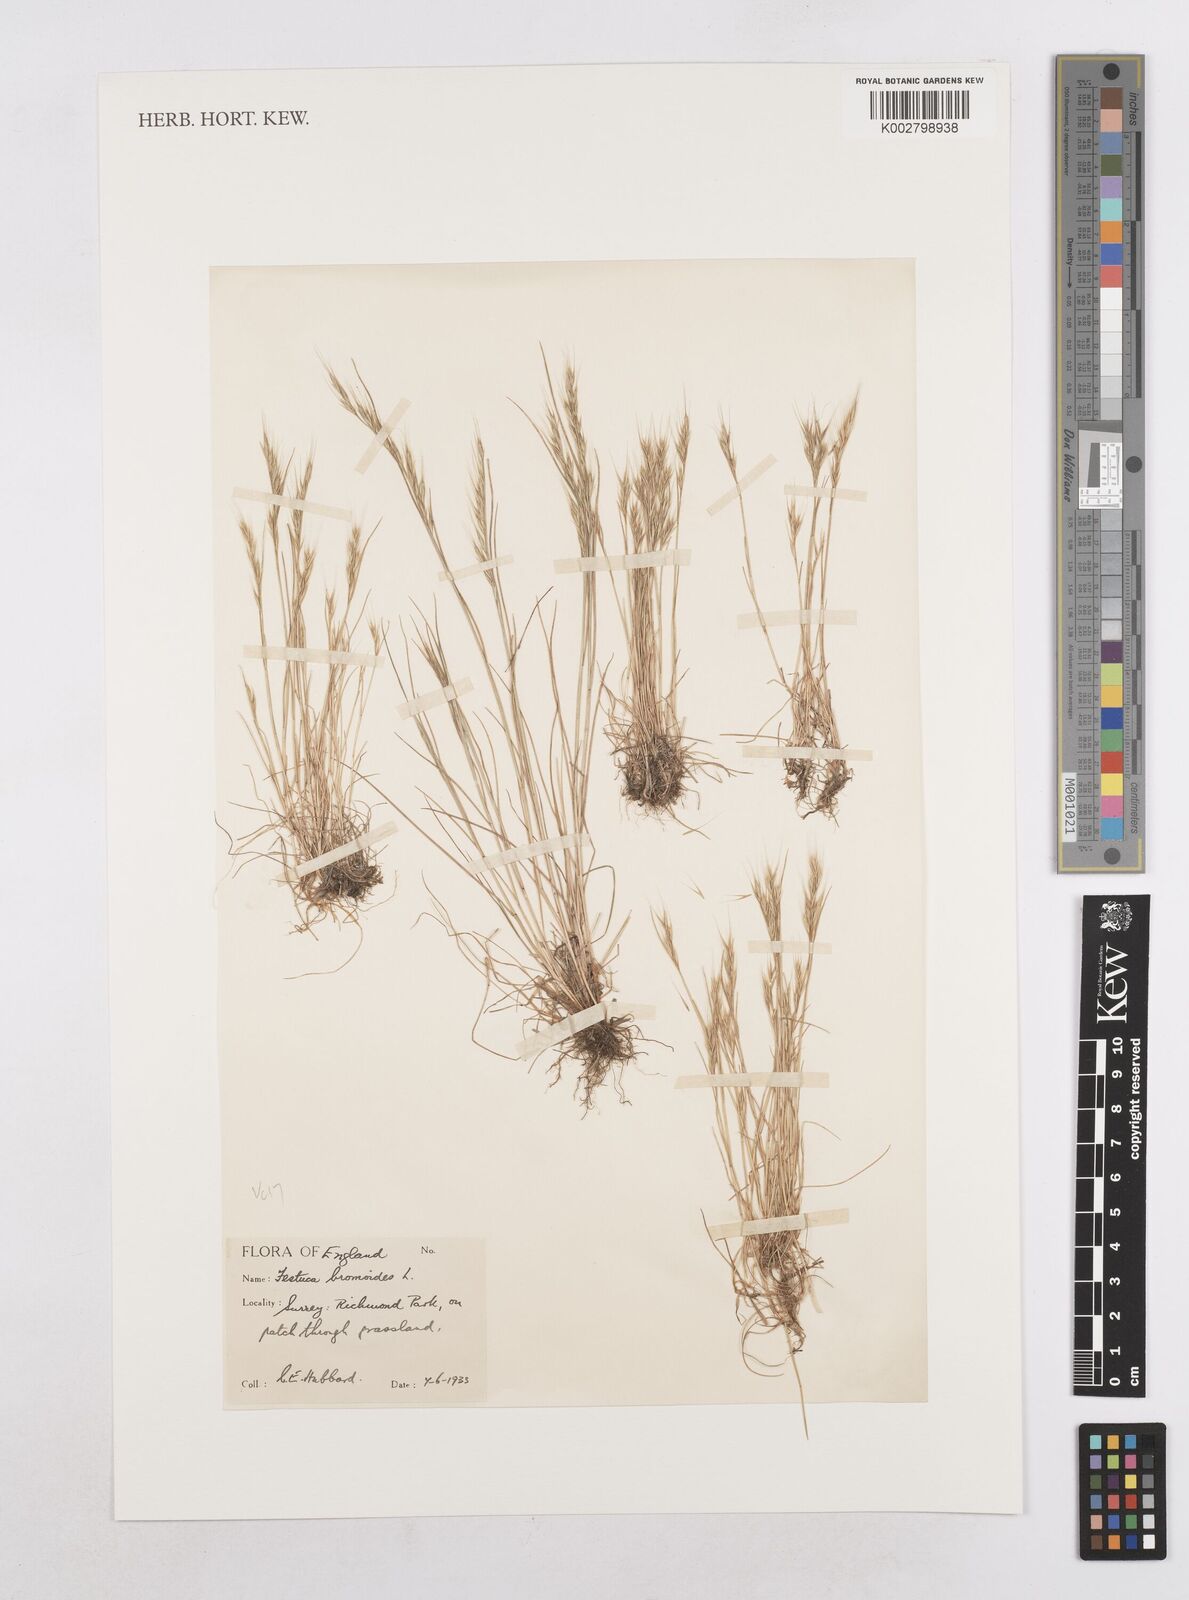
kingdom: Plantae
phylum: Tracheophyta
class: Liliopsida
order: Poales
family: Poaceae
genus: Festuca
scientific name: Festuca bromoides
